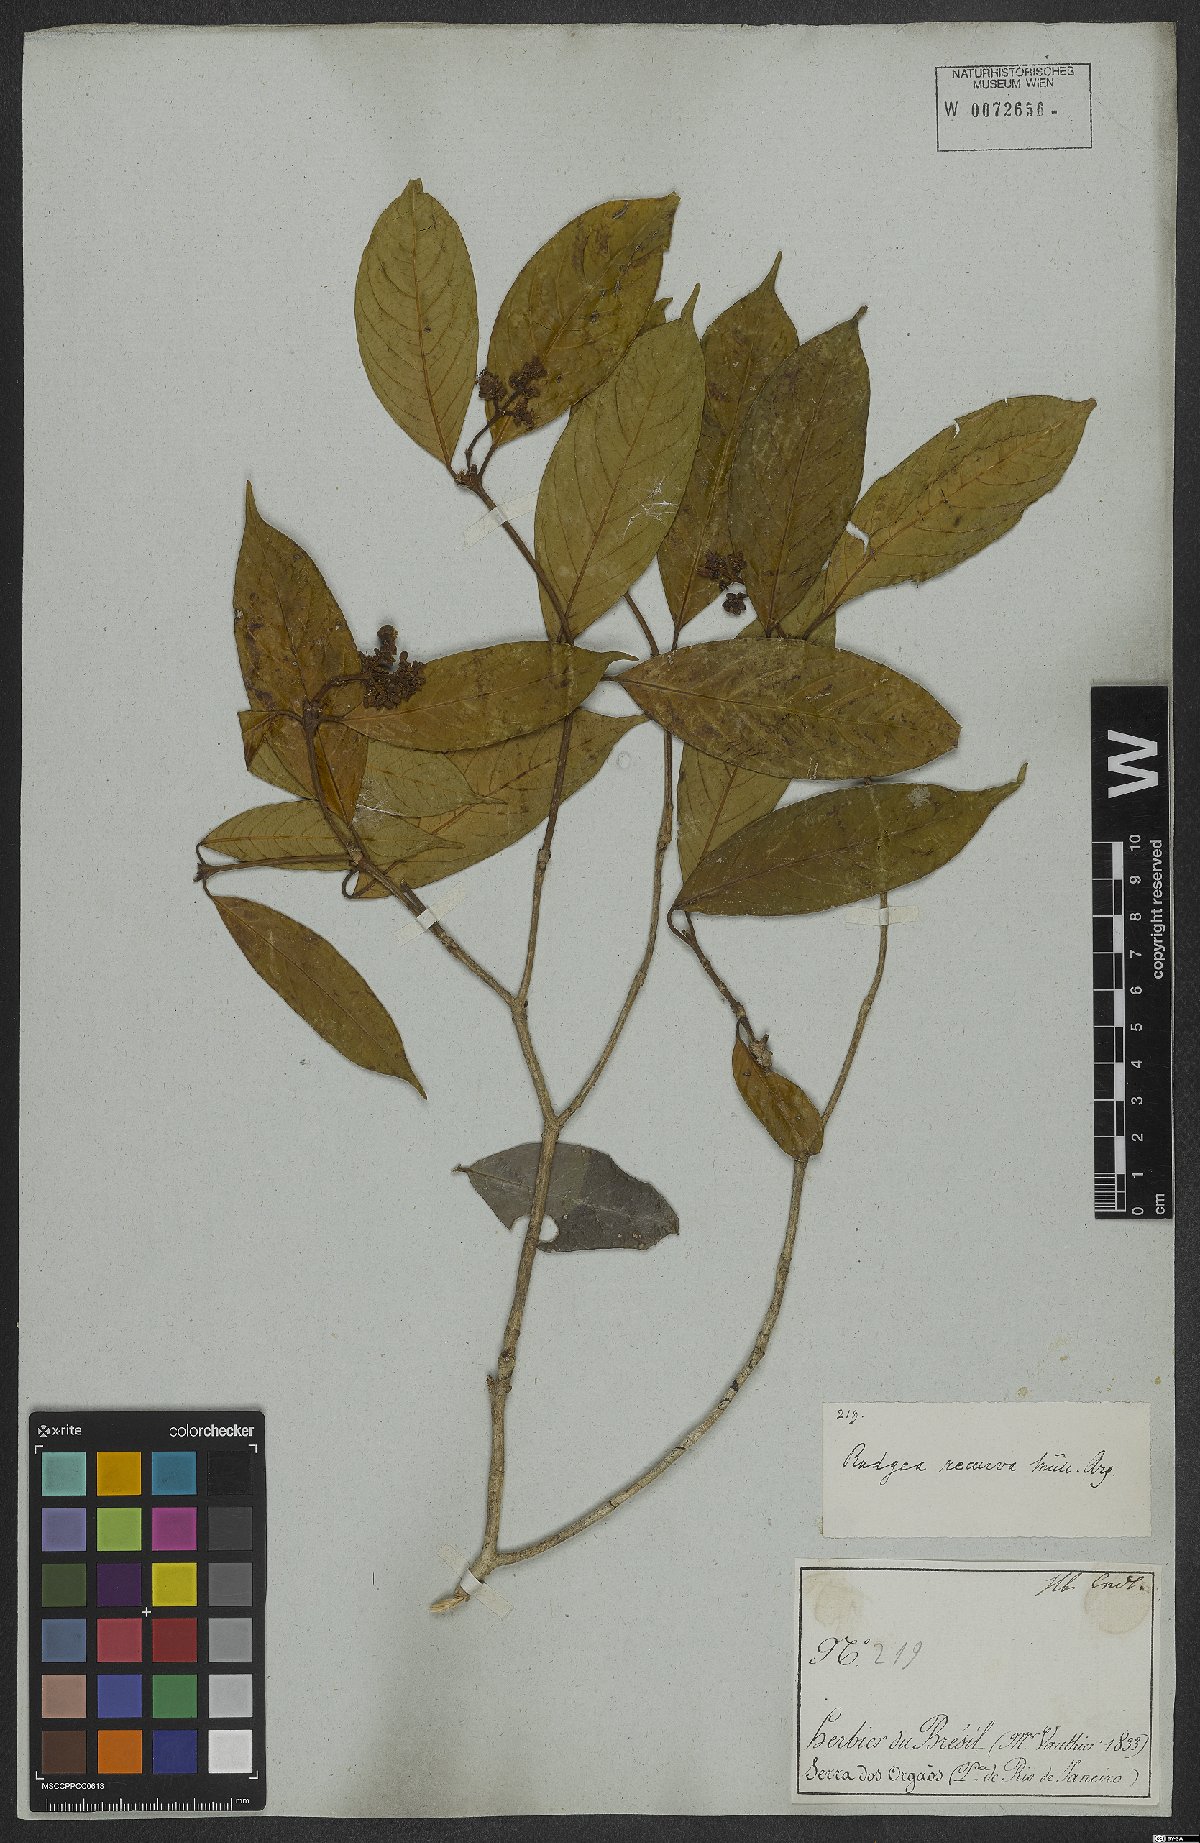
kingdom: Plantae
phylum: Tracheophyta
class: Magnoliopsida
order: Gentianales
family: Rubiaceae
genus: Rudgea
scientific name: Rudgea recurva
